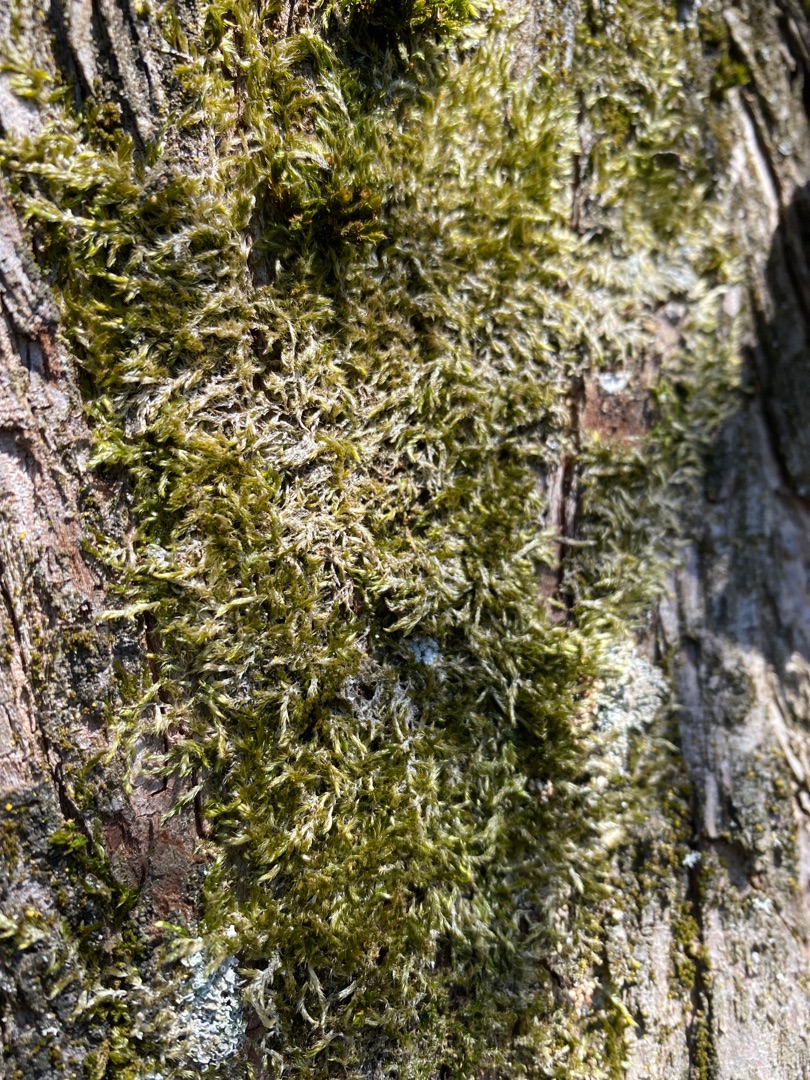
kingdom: Plantae
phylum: Bryophyta
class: Bryopsida
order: Hypnales
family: Hypnaceae
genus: Hypnum
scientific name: Hypnum
